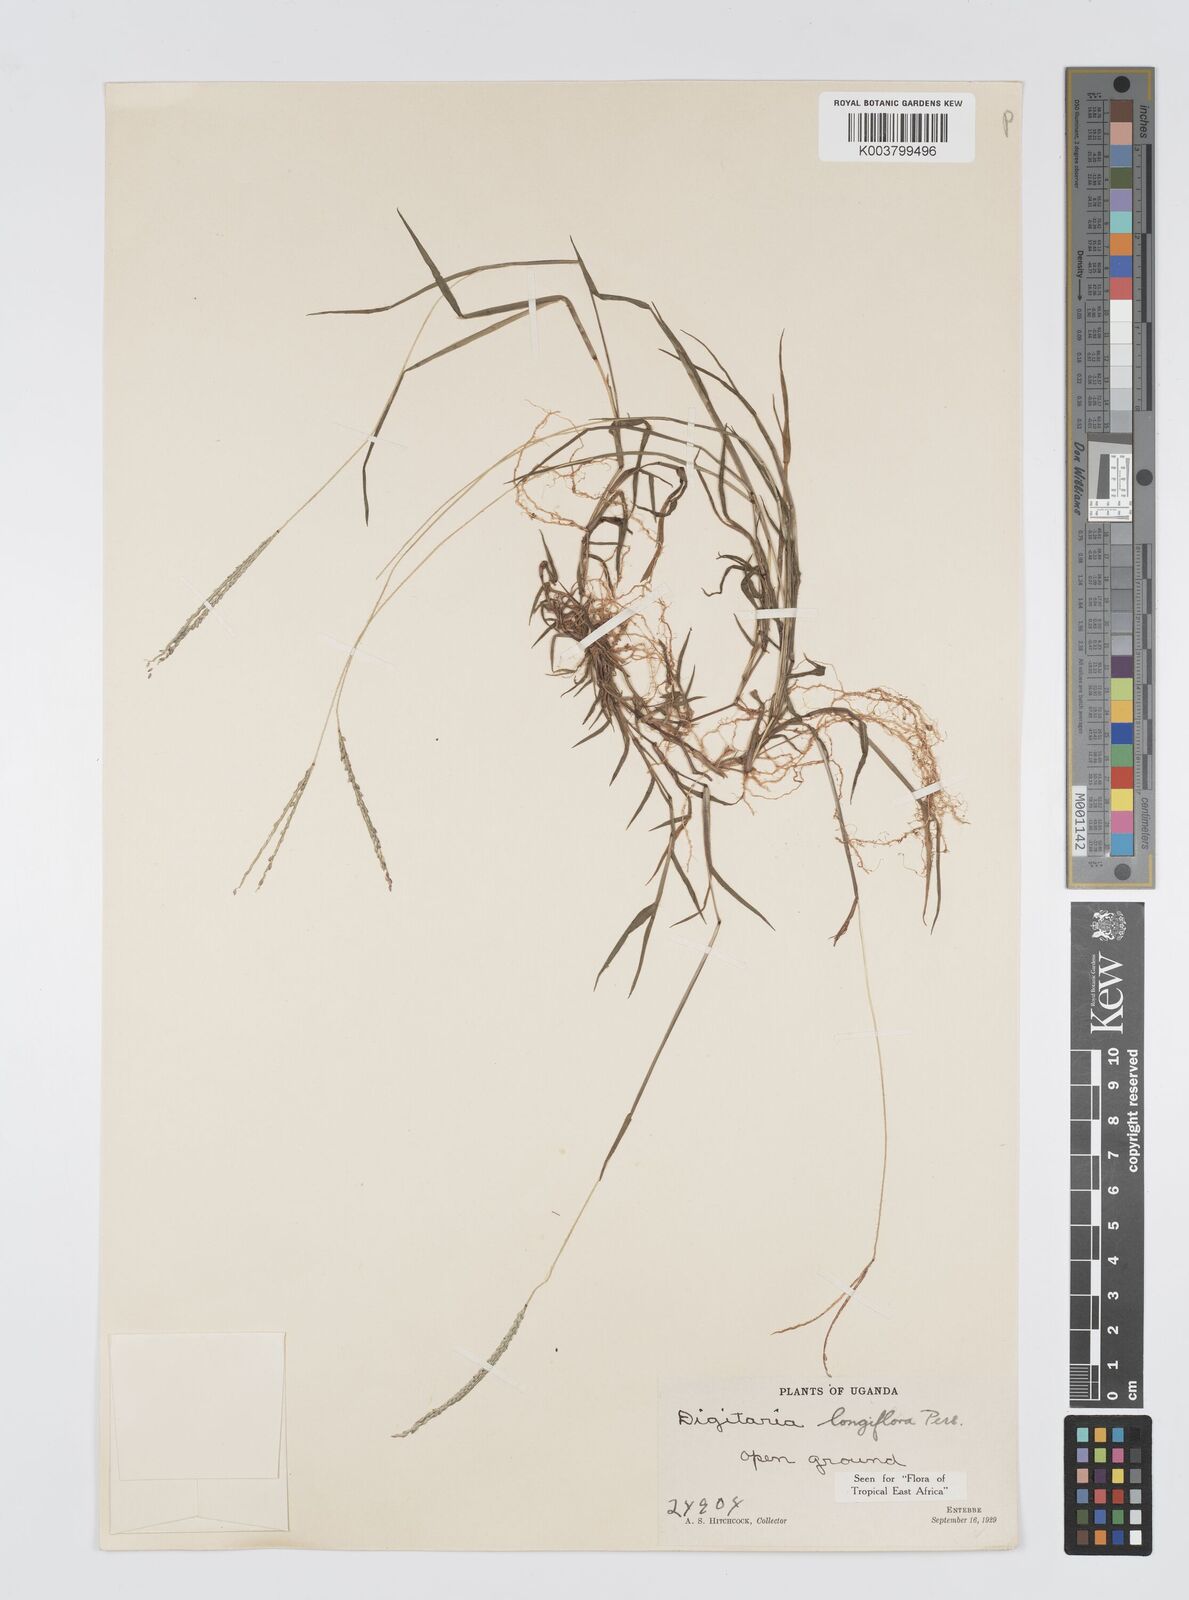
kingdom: Plantae
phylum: Tracheophyta
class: Liliopsida
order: Poales
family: Poaceae
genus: Digitaria
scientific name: Digitaria longiflora
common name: Wire crabgrass
